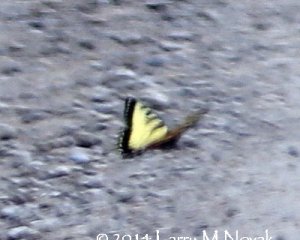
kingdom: Animalia
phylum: Arthropoda
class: Insecta
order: Lepidoptera
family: Papilionidae
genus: Pterourus
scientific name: Pterourus canadensis
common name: Canadian Tiger Swallowtail
